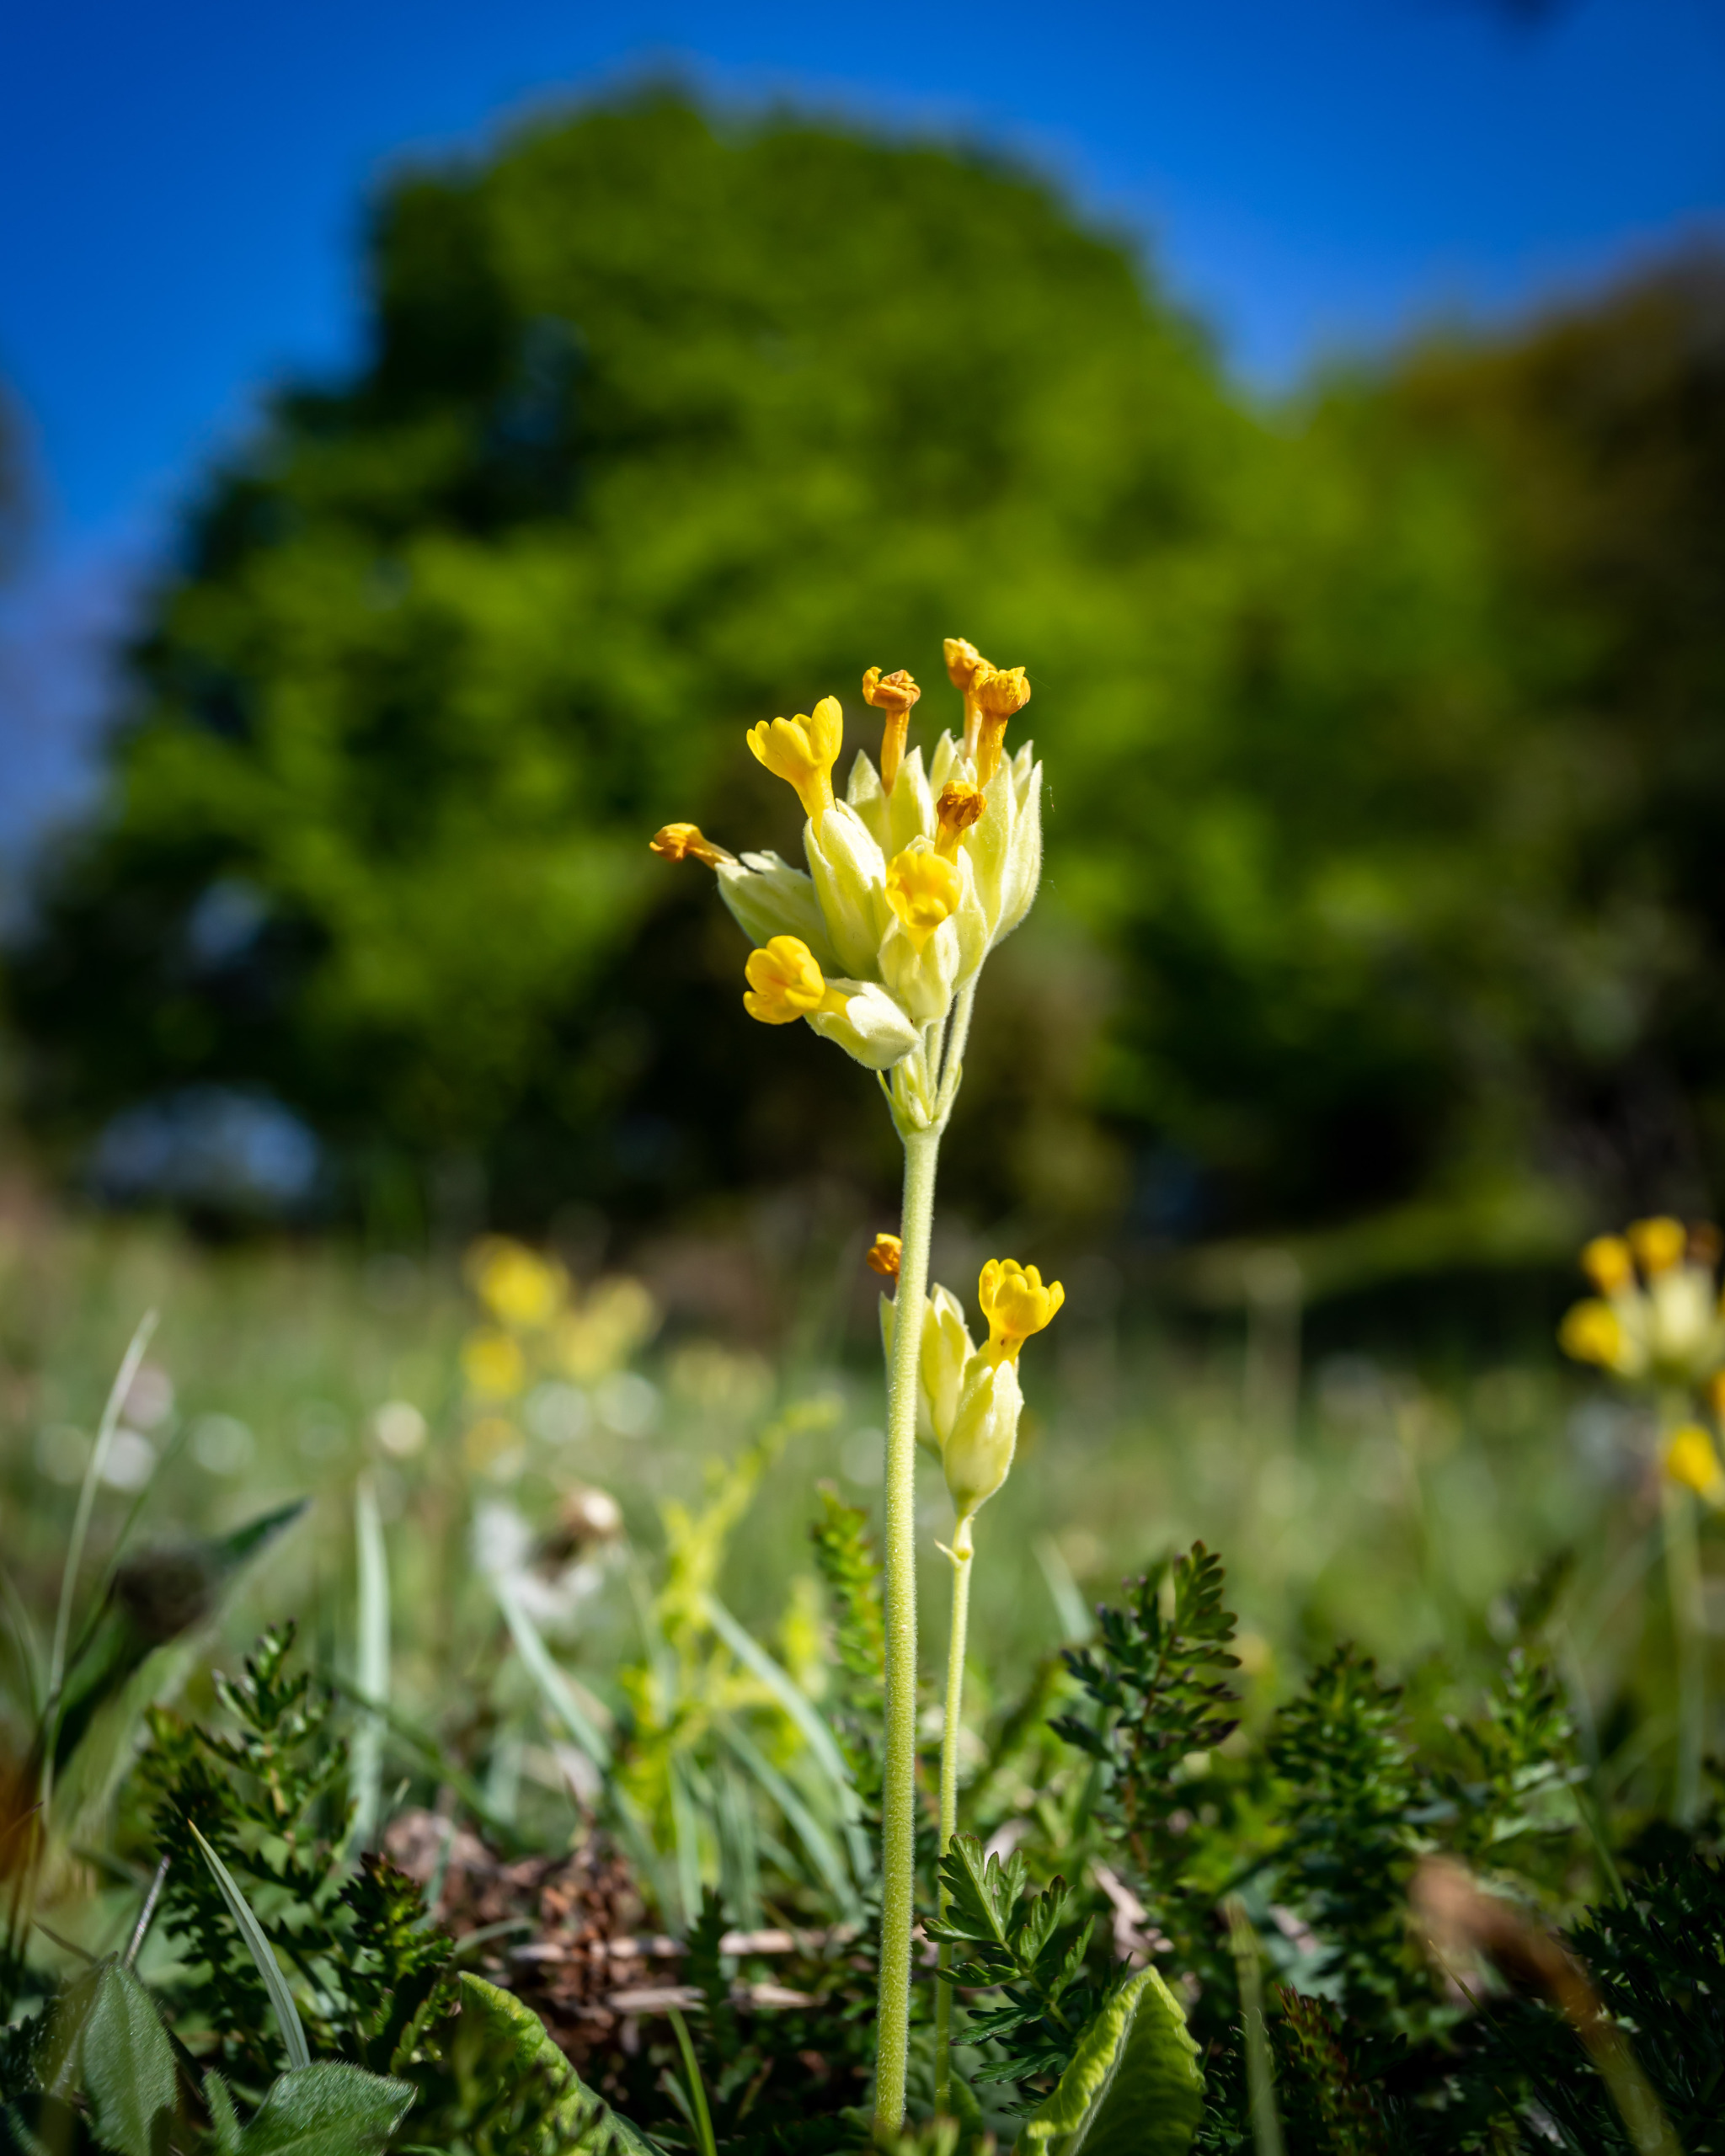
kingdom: Plantae
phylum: Tracheophyta
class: Magnoliopsida
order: Ericales
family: Primulaceae
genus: Primula
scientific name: Primula veris
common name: Hulkravet kodriver
